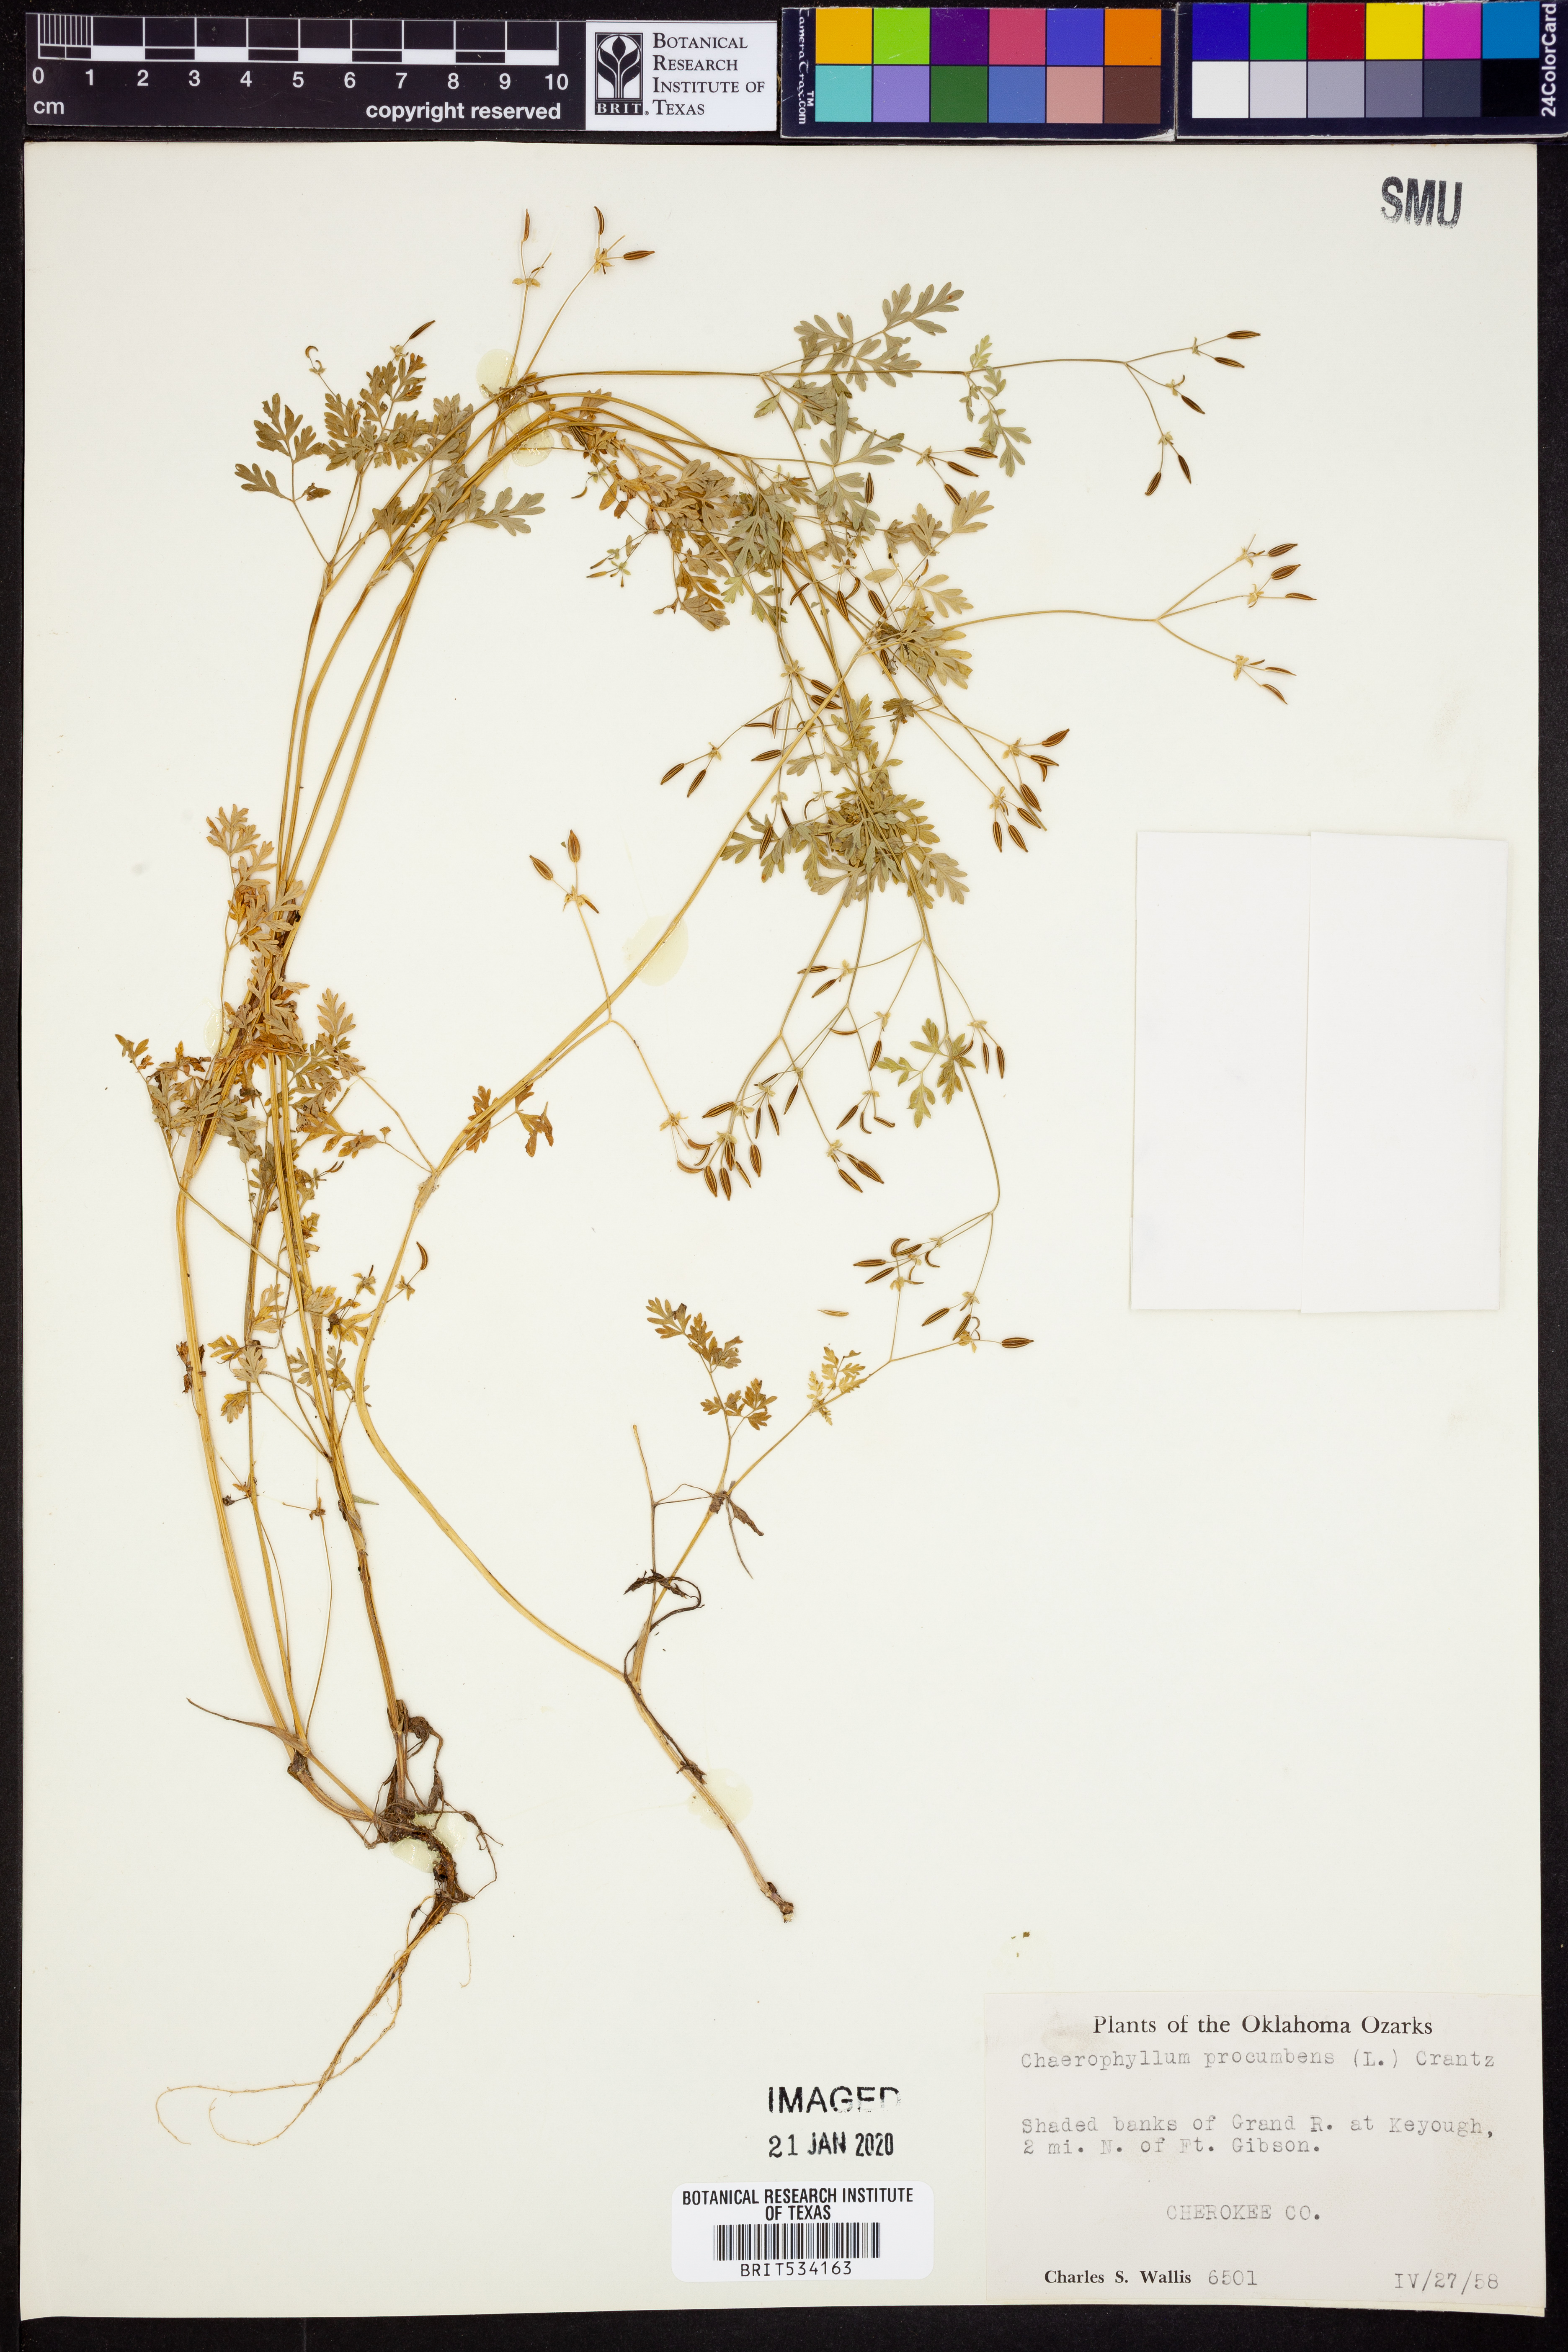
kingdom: Plantae
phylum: Tracheophyta
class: Magnoliopsida
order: Apiales
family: Apiaceae
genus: Chaerophyllum
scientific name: Chaerophyllum procumbens
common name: Spreading chervil
